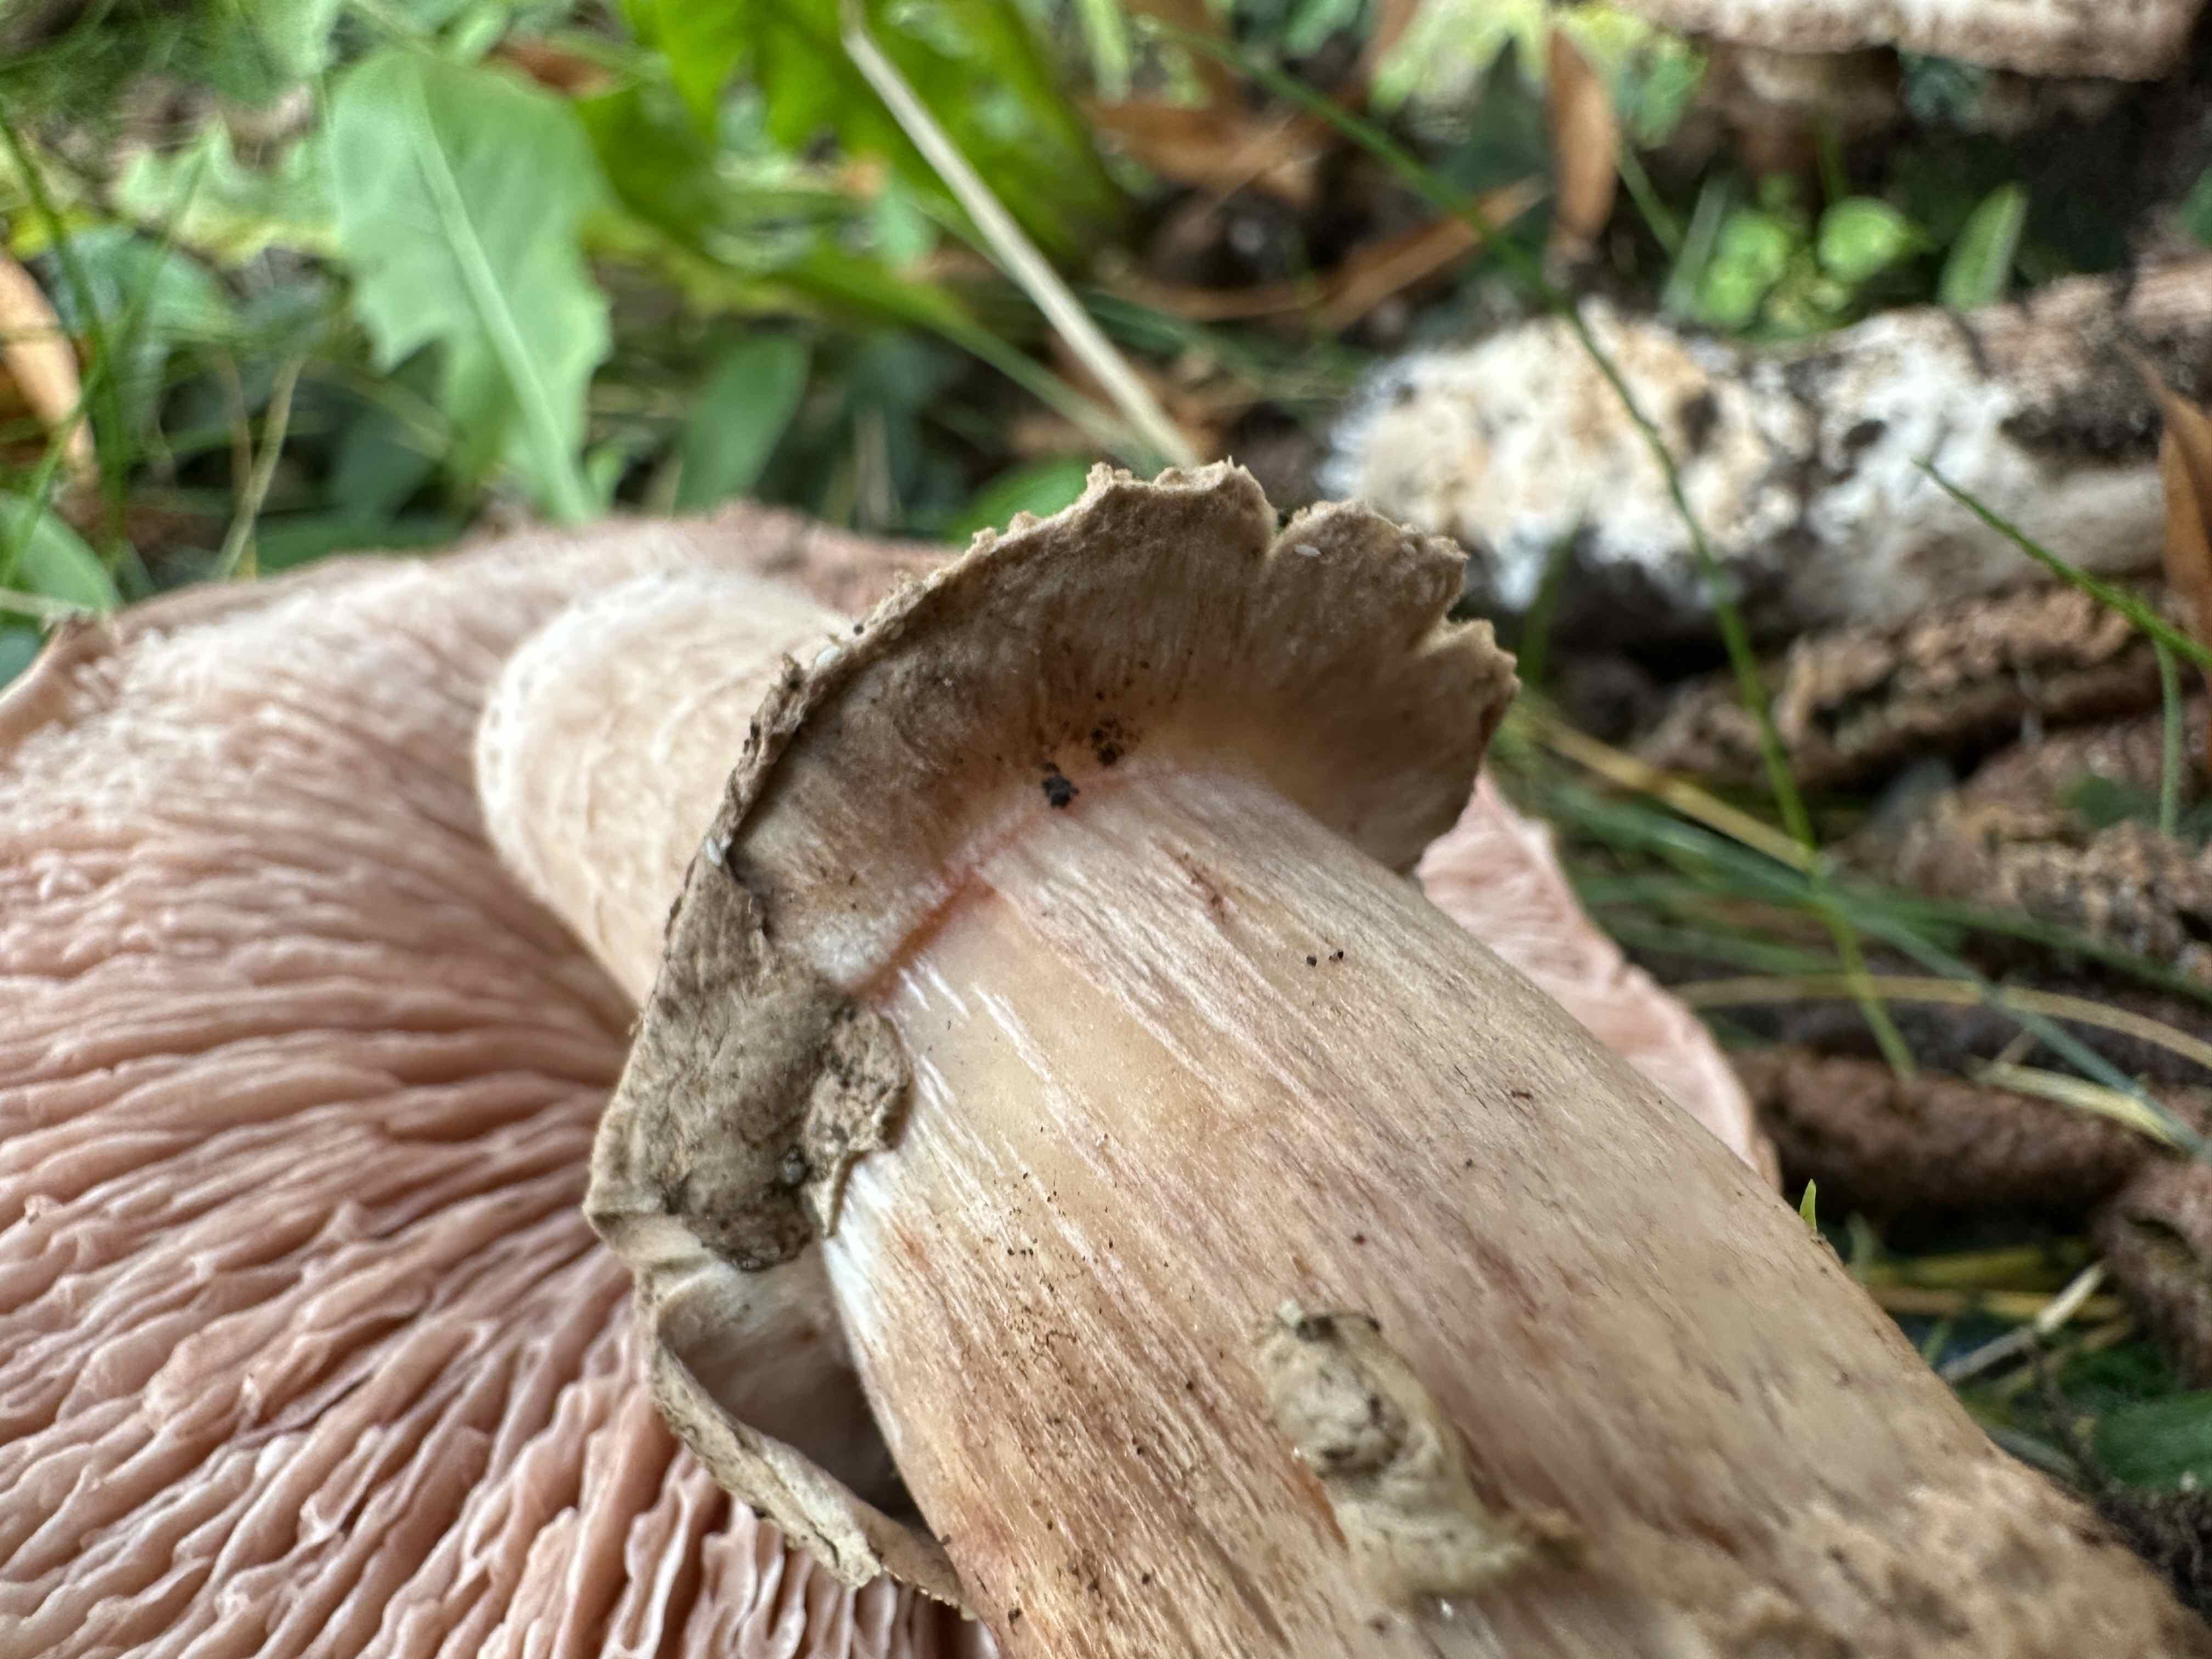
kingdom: Fungi
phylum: Basidiomycota
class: Agaricomycetes
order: Agaricales
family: Agaricaceae
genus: Agaricus
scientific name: Agaricus bohusii
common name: krumskællet champignon
